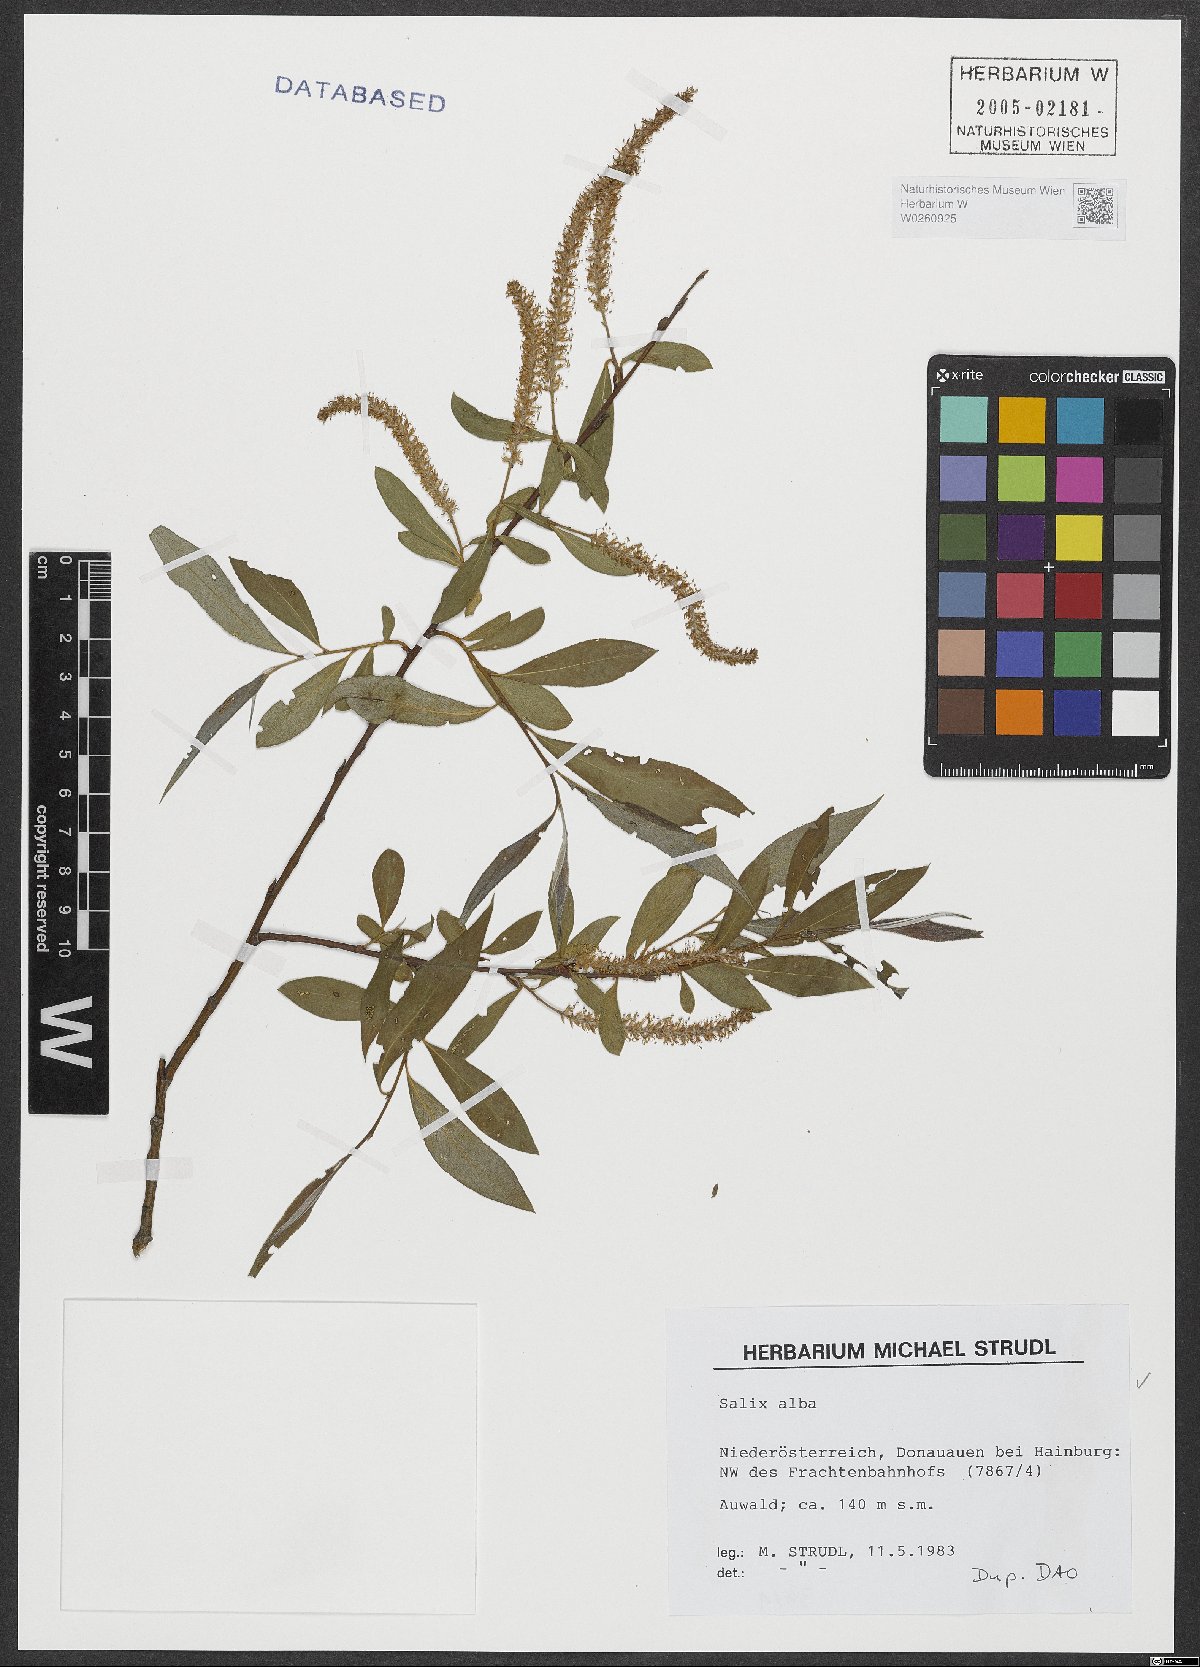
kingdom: Plantae
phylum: Tracheophyta
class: Magnoliopsida
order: Malpighiales
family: Salicaceae
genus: Salix
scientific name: Salix alba
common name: White willow
